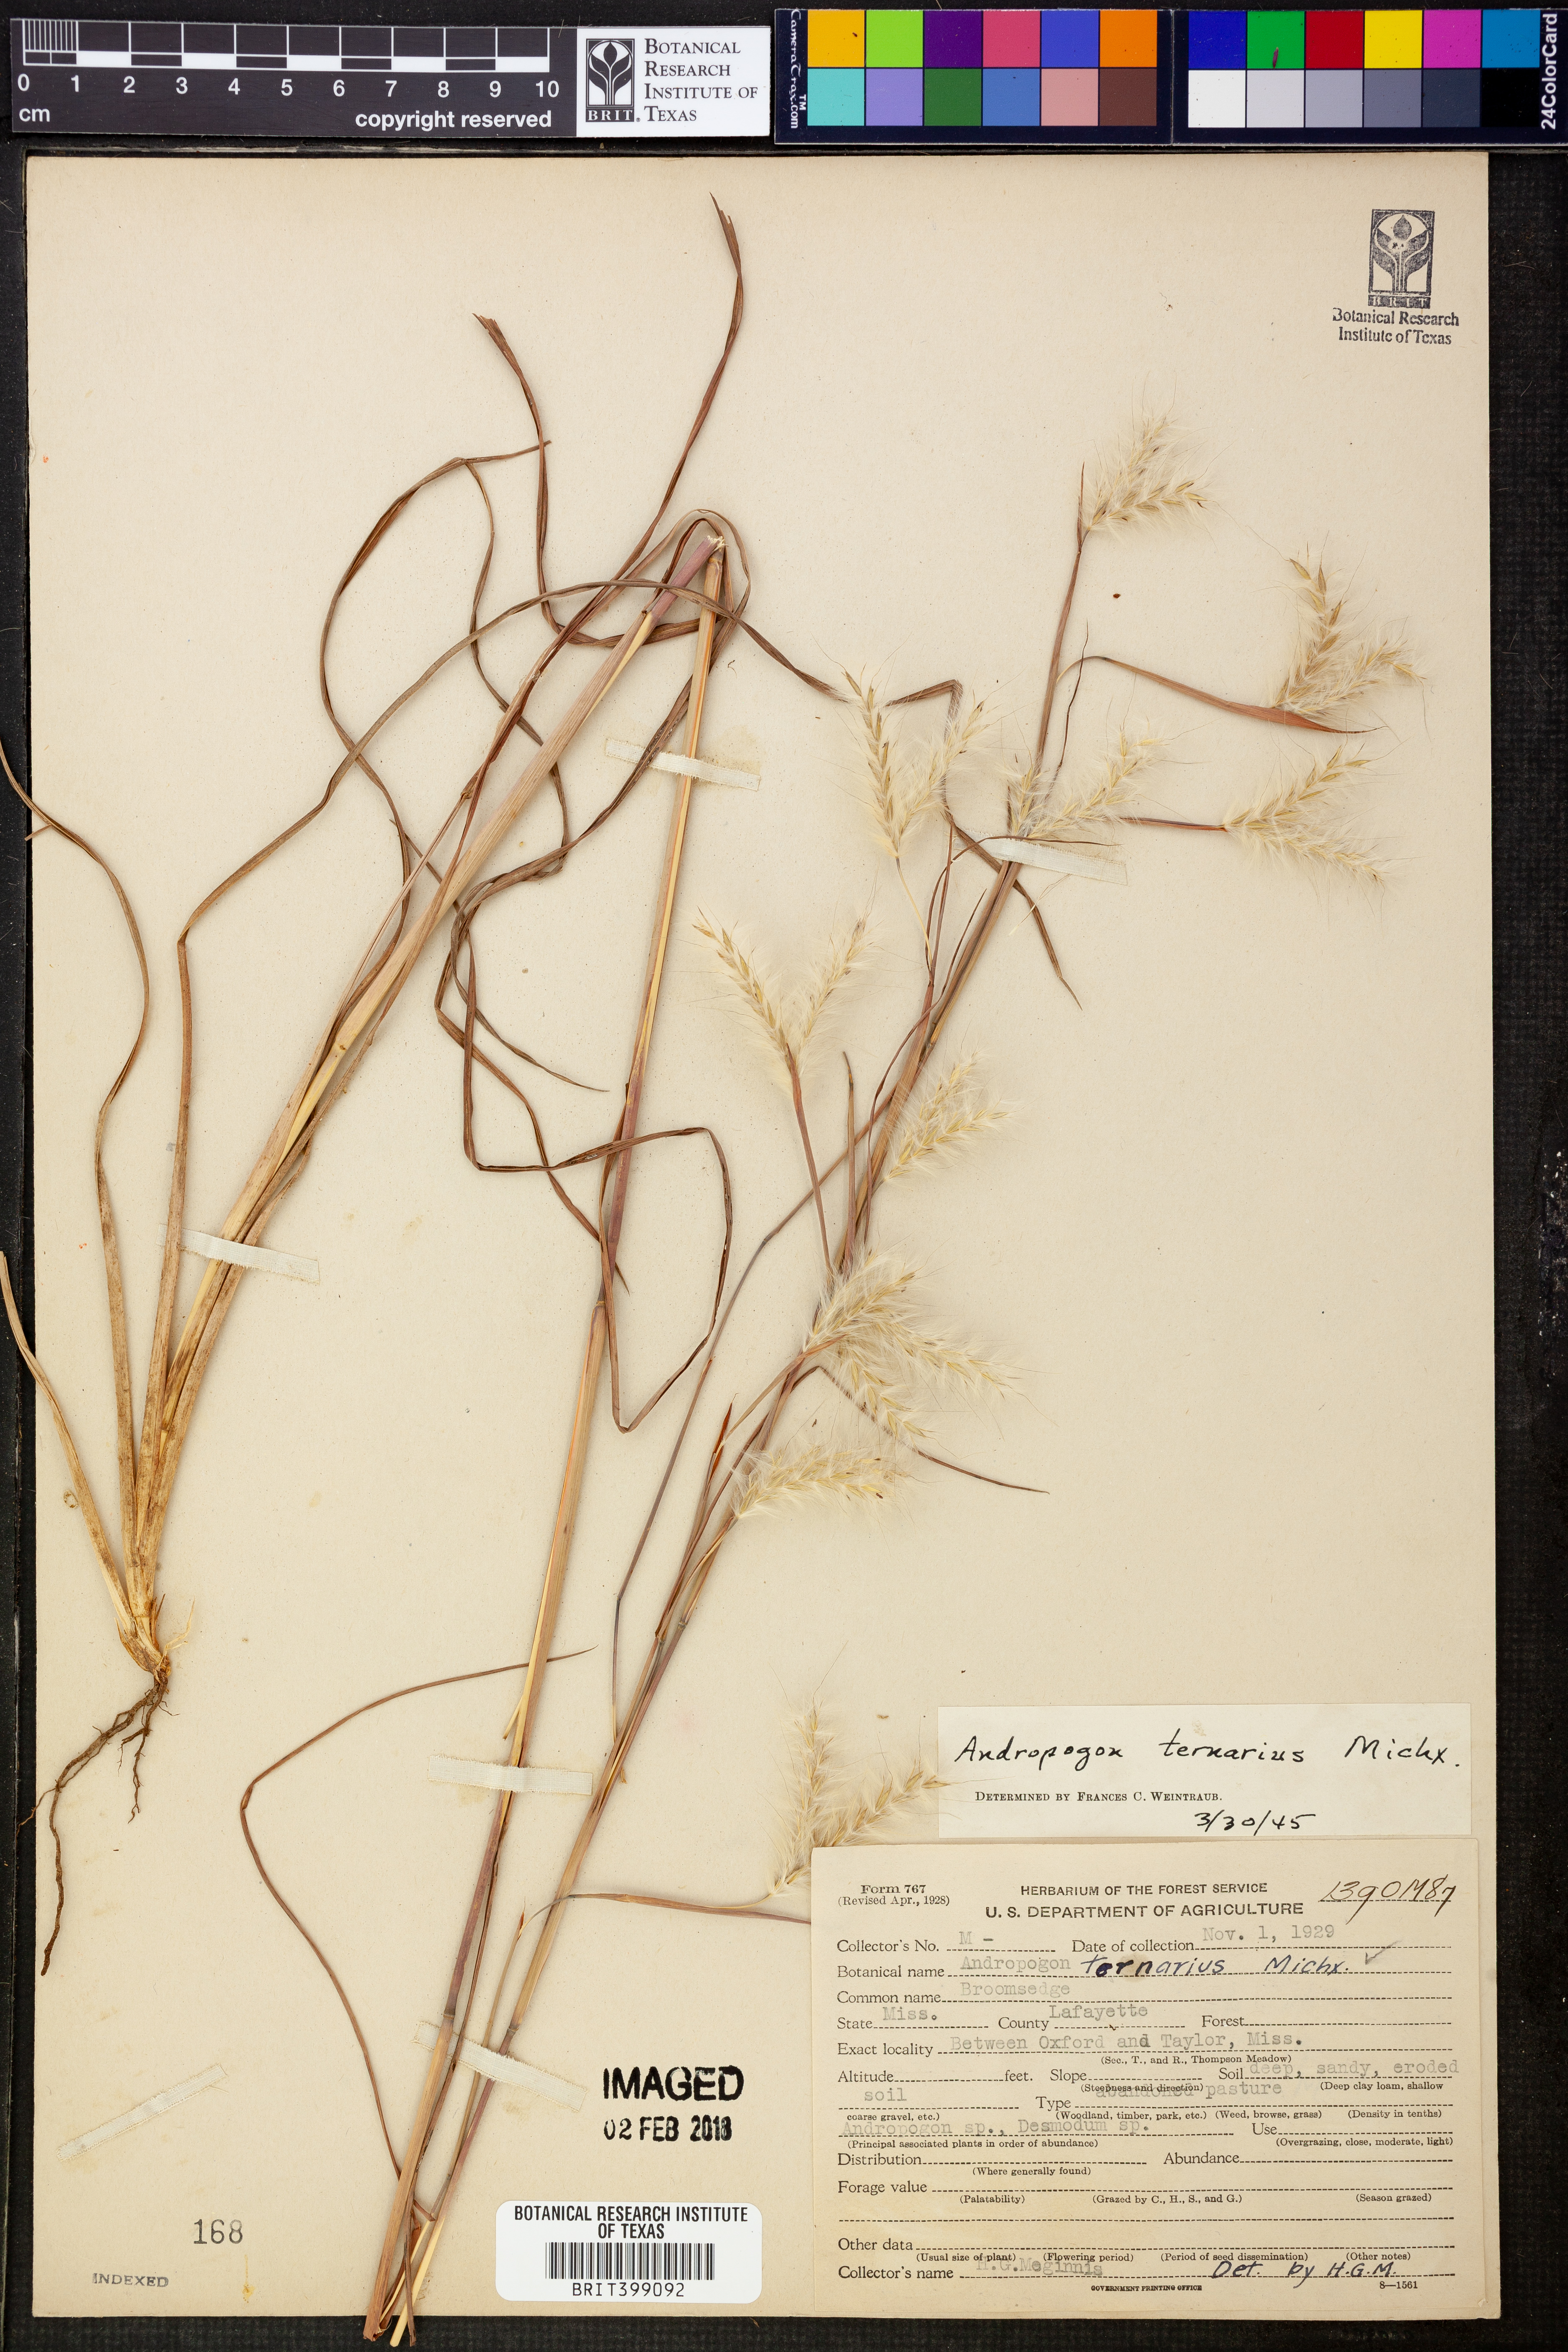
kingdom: Plantae
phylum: Tracheophyta
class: Liliopsida
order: Poales
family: Poaceae
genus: Andropogon
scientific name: Andropogon ternarius
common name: Split bluestem
